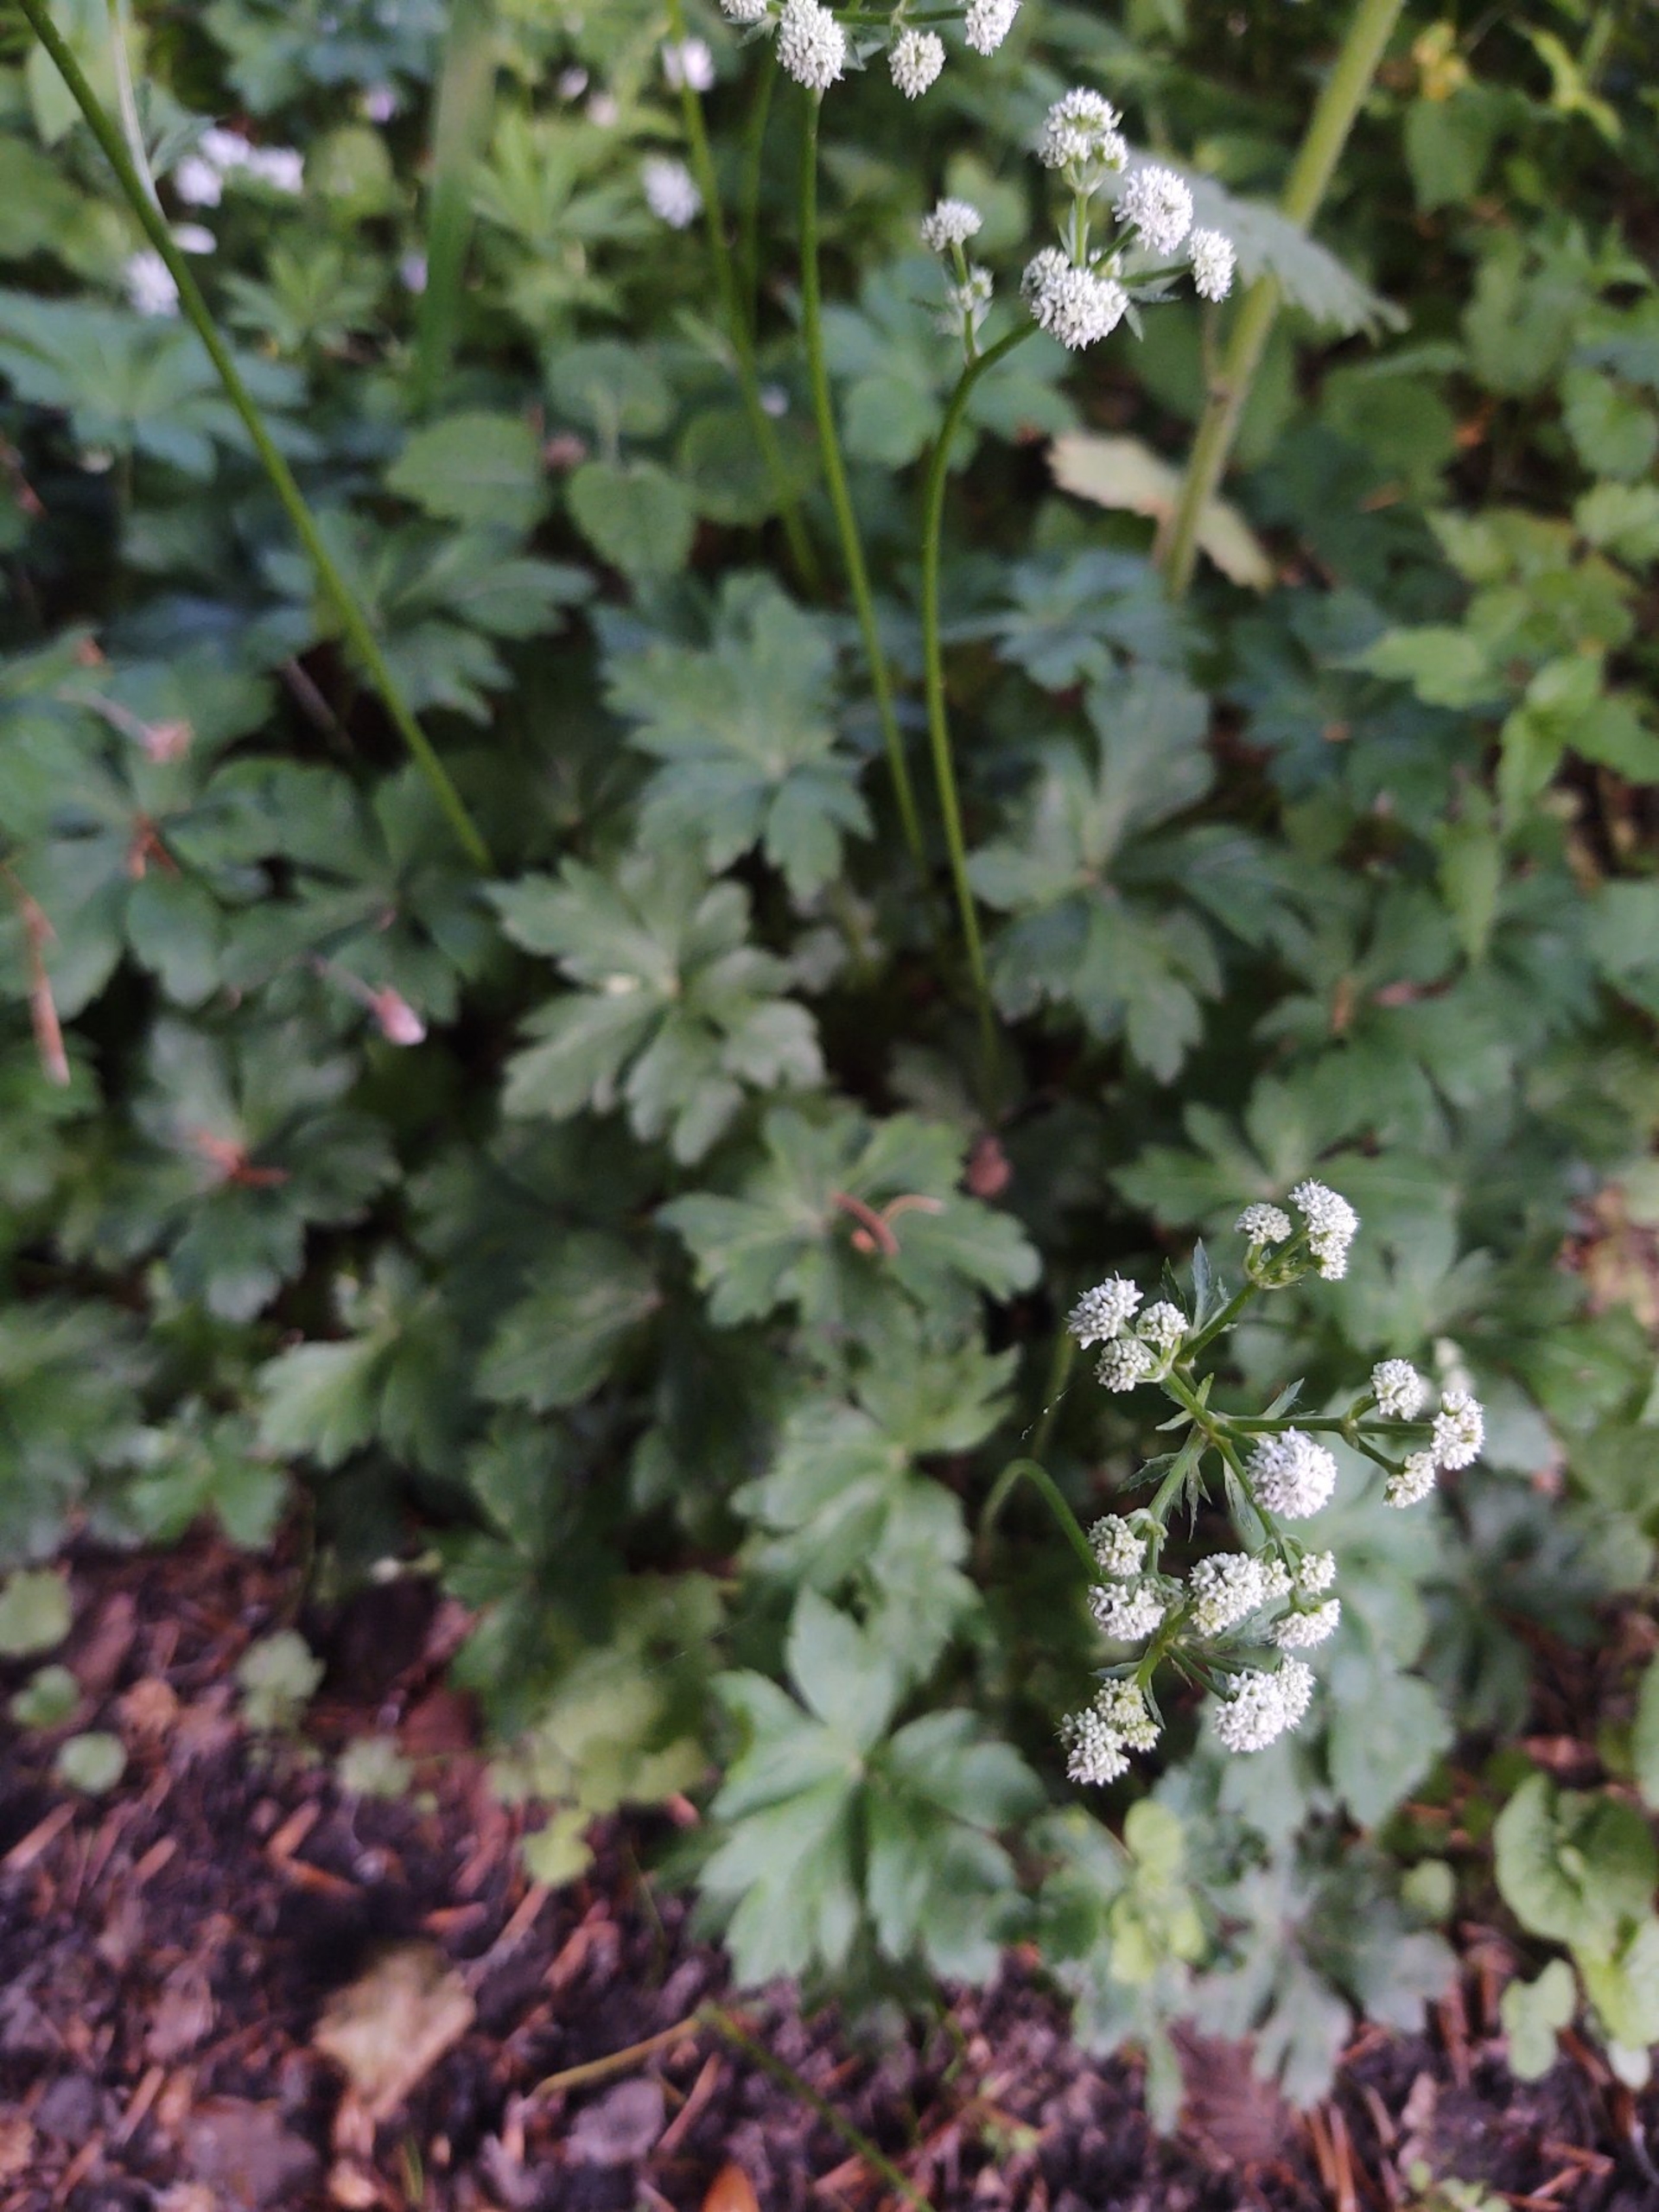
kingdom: Plantae
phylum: Tracheophyta
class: Magnoliopsida
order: Apiales
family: Apiaceae
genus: Sanicula
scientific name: Sanicula europaea
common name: Sanikel
